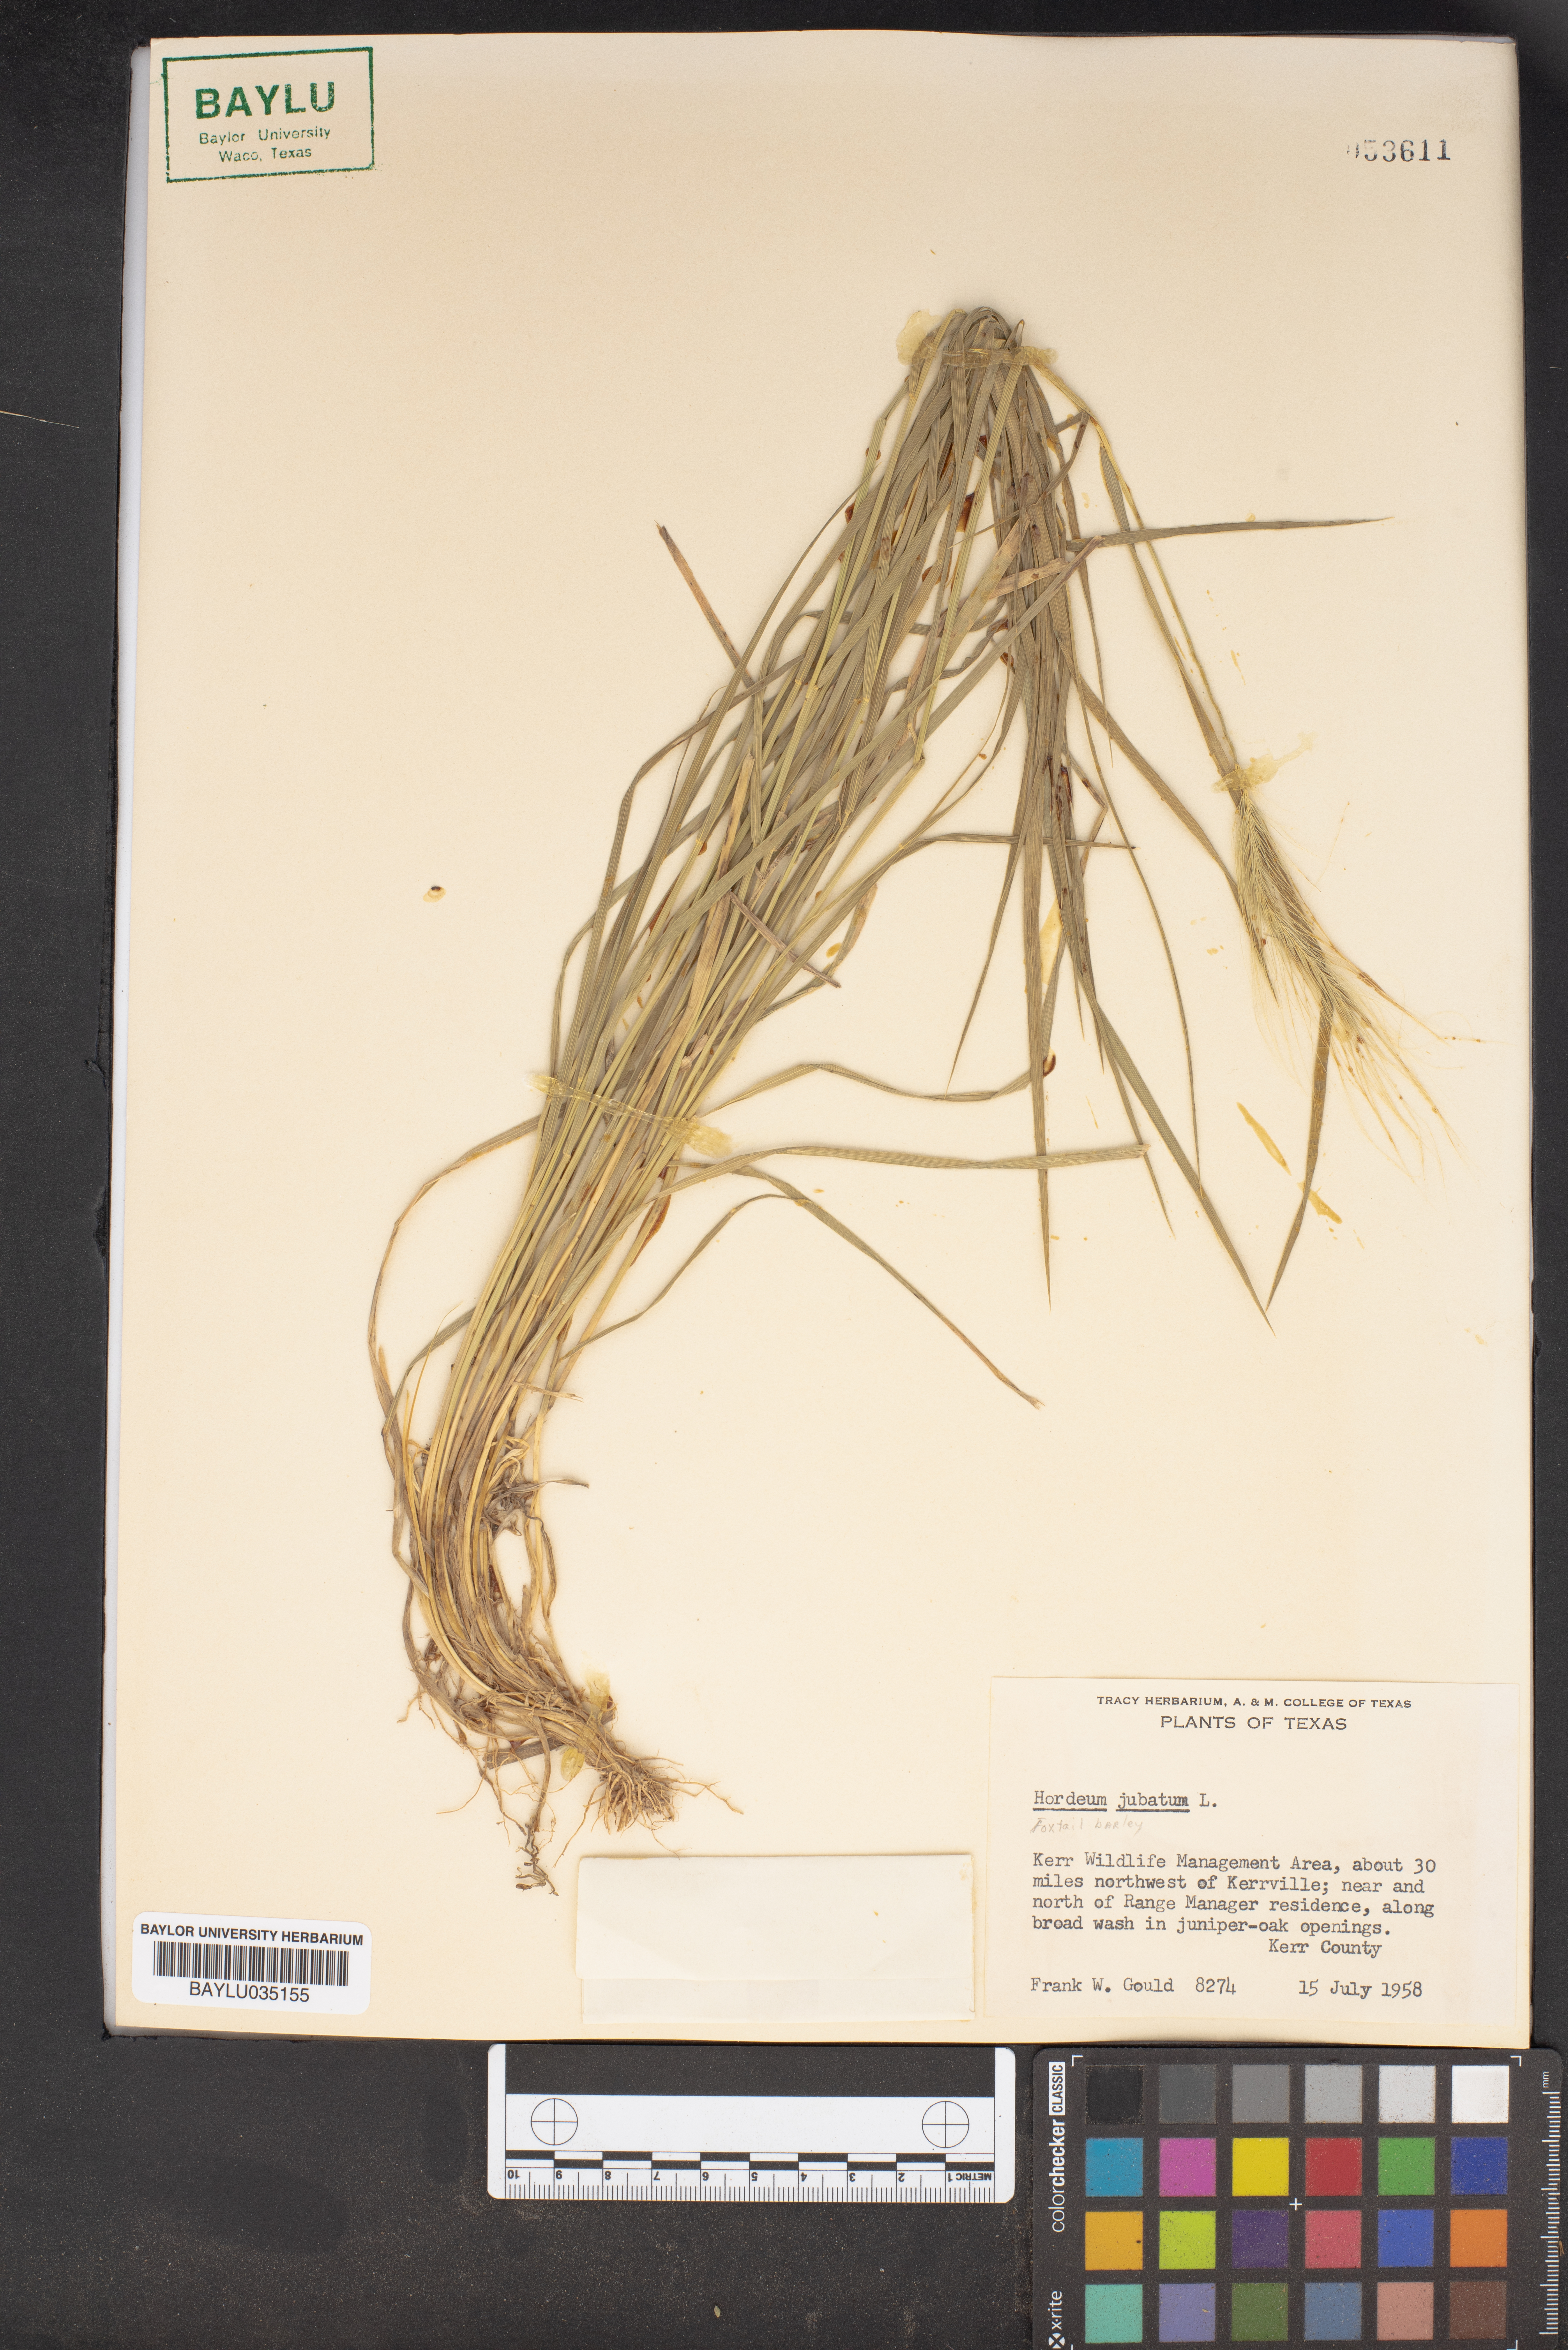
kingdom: Plantae
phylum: Tracheophyta
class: Liliopsida
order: Poales
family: Poaceae
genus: Hordeum
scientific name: Hordeum jubatum
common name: Foxtail barley
